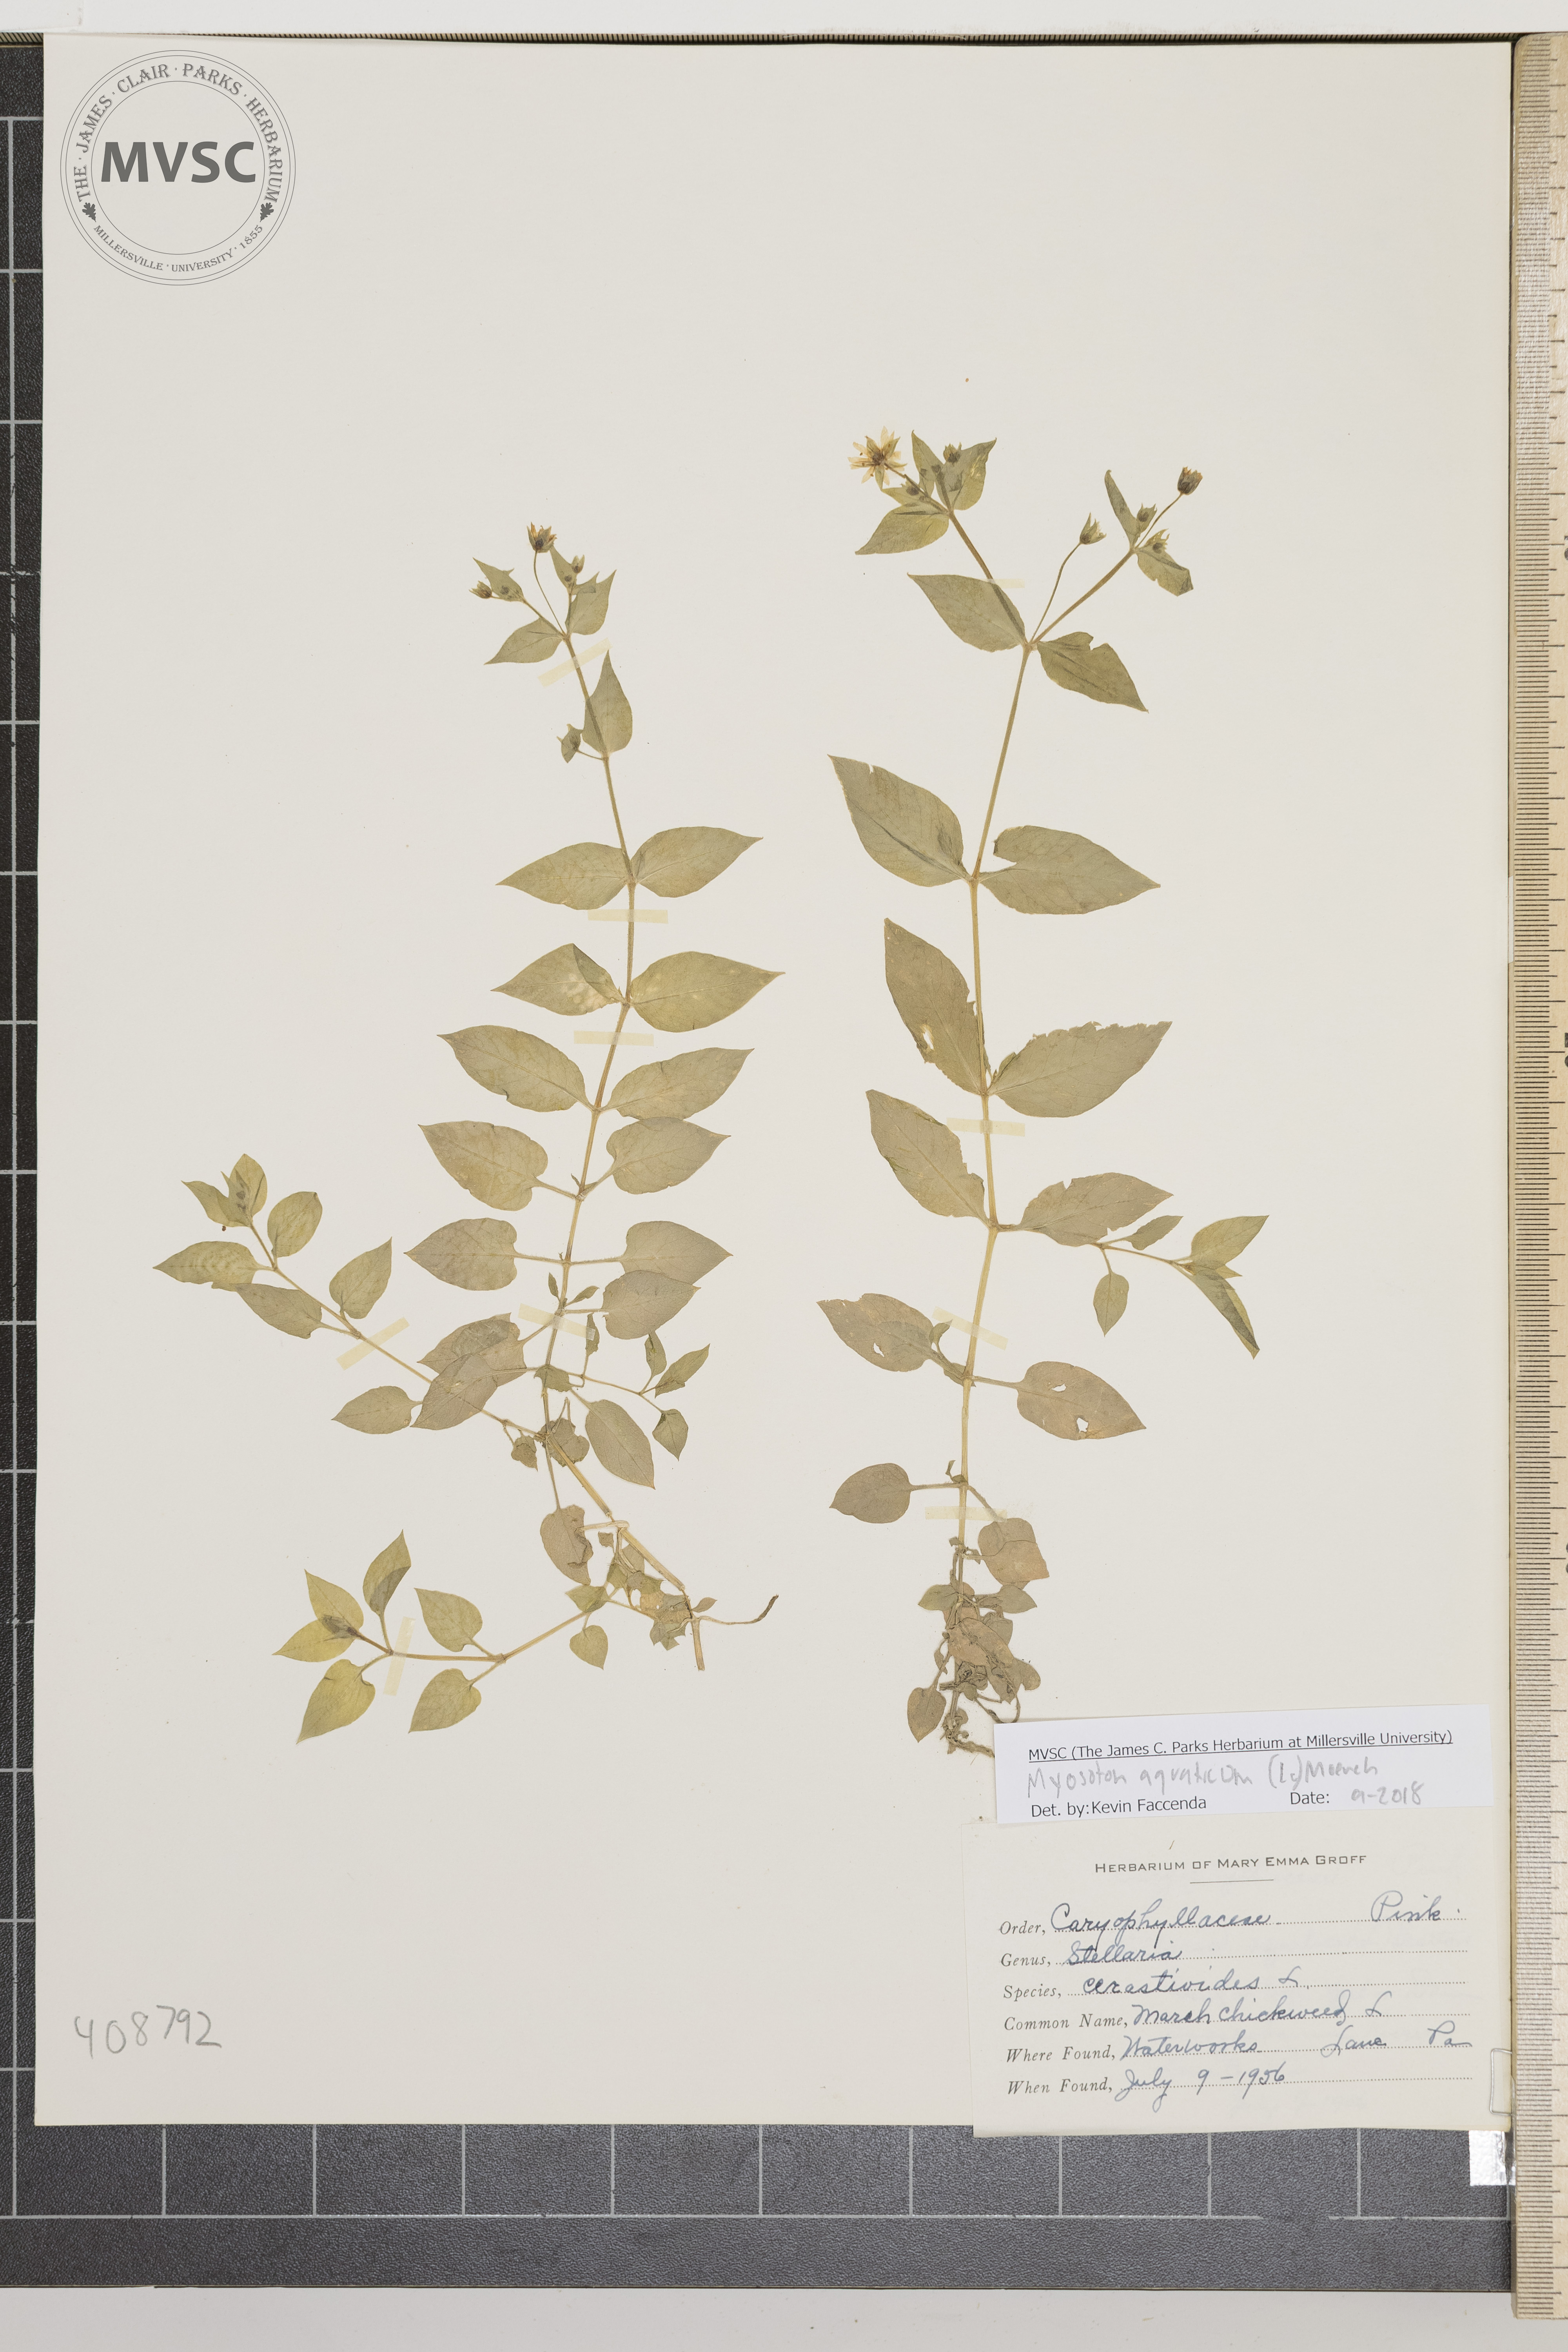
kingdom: Plantae
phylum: Tracheophyta
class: Magnoliopsida
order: Caryophyllales
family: Caryophyllaceae
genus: Stellaria
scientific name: Stellaria aquatica
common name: Marsh chickweed
